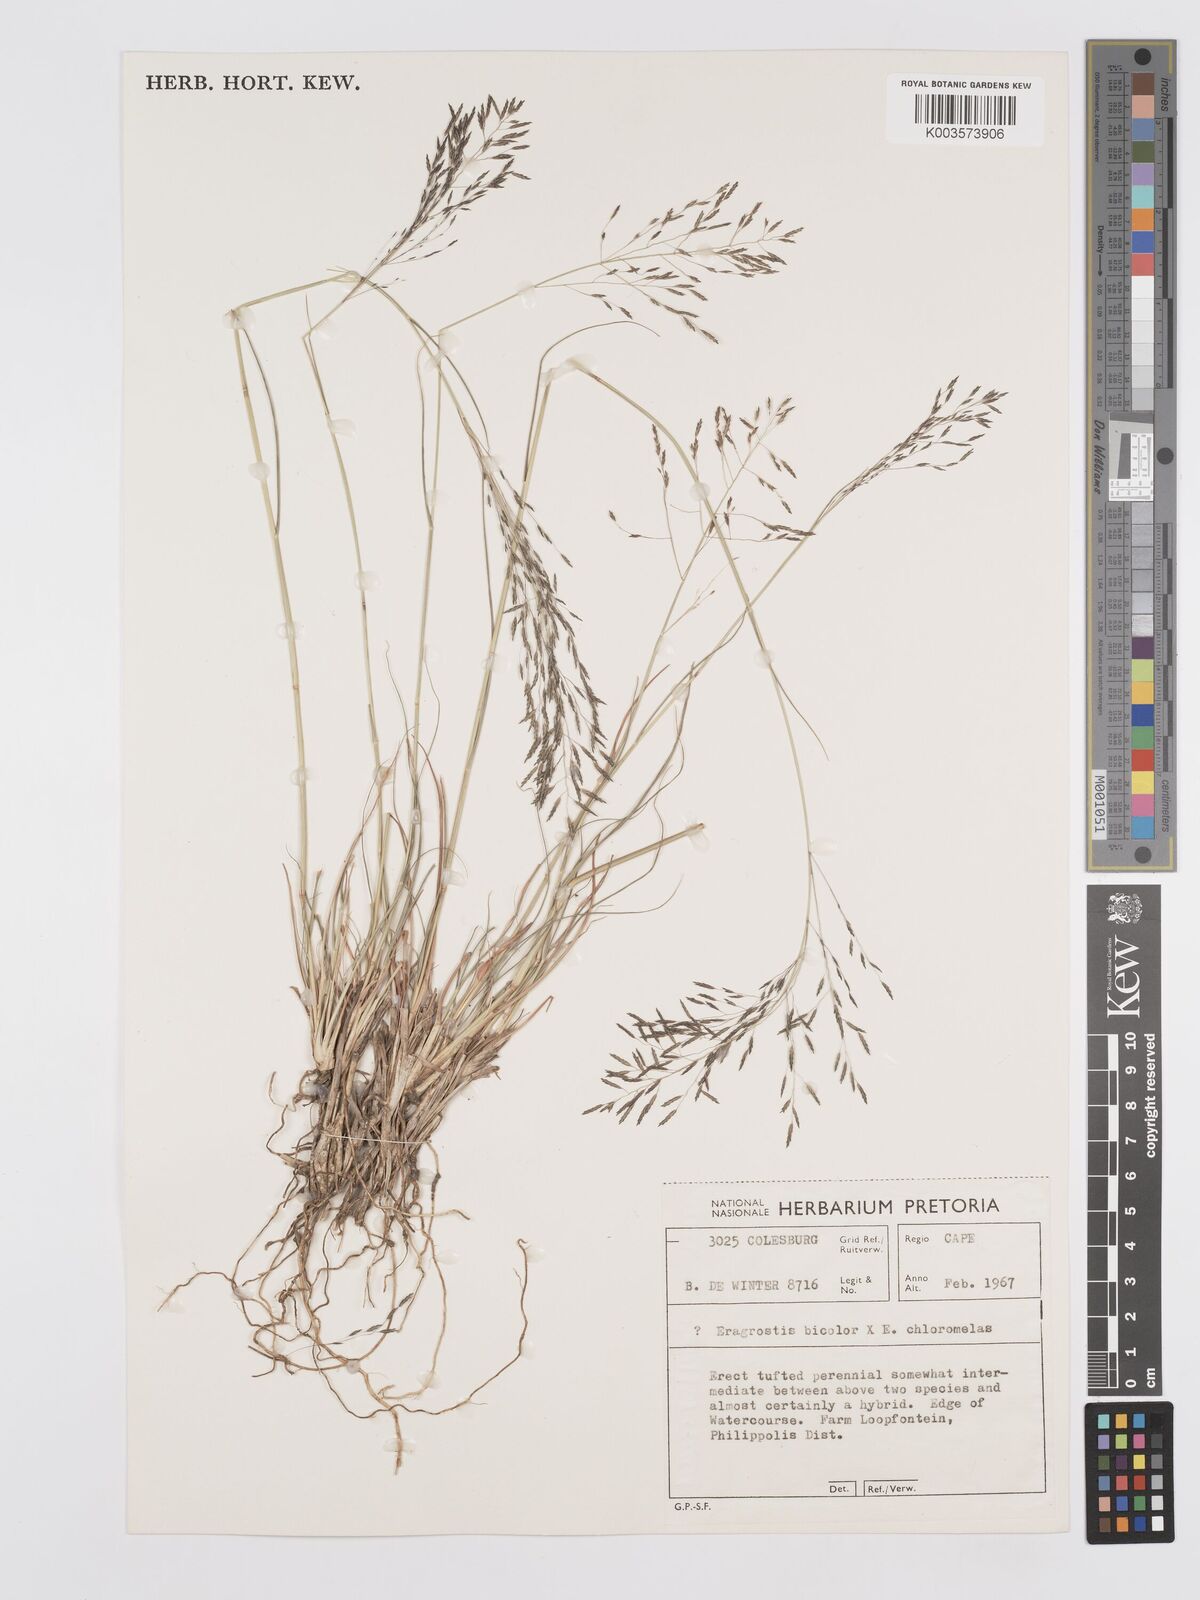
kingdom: Plantae
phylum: Tracheophyta
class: Liliopsida
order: Poales
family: Poaceae
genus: Eragrostis
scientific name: Eragrostis
